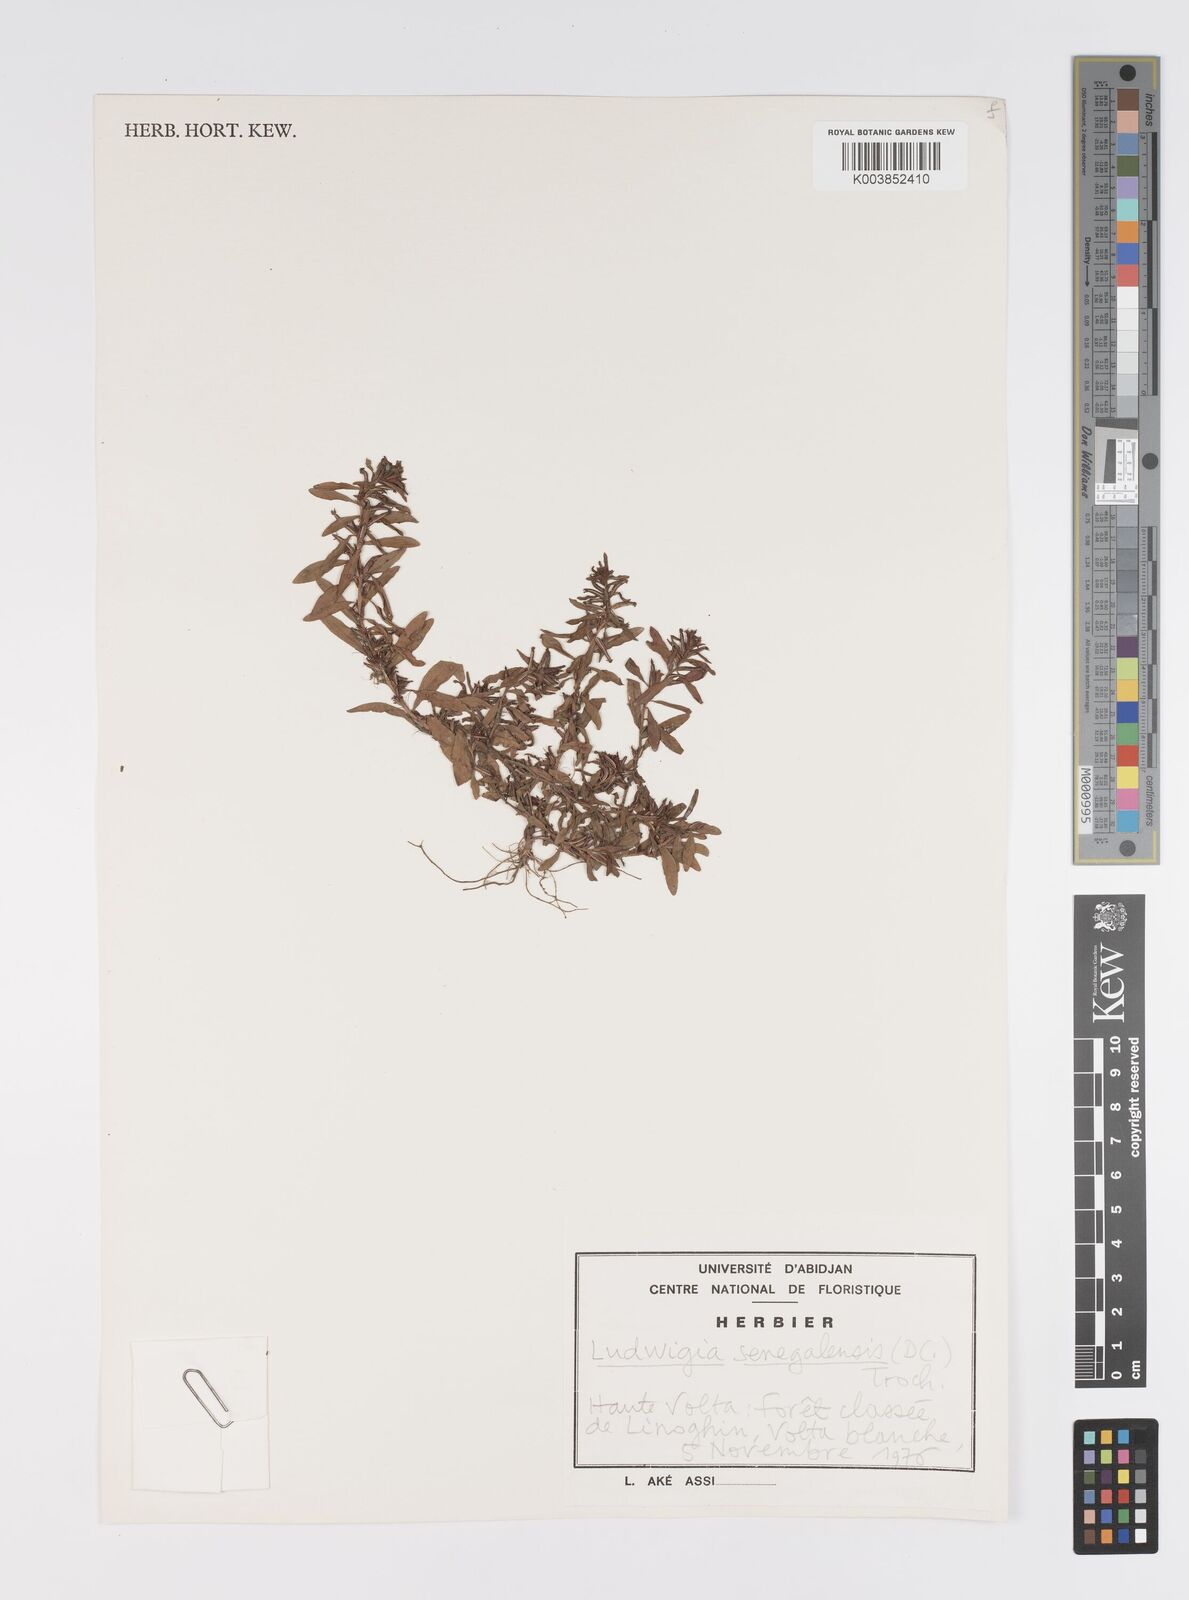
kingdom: Plantae
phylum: Tracheophyta
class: Magnoliopsida
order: Myrtales
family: Onagraceae
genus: Ludwigia
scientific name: Ludwigia senegalensis
